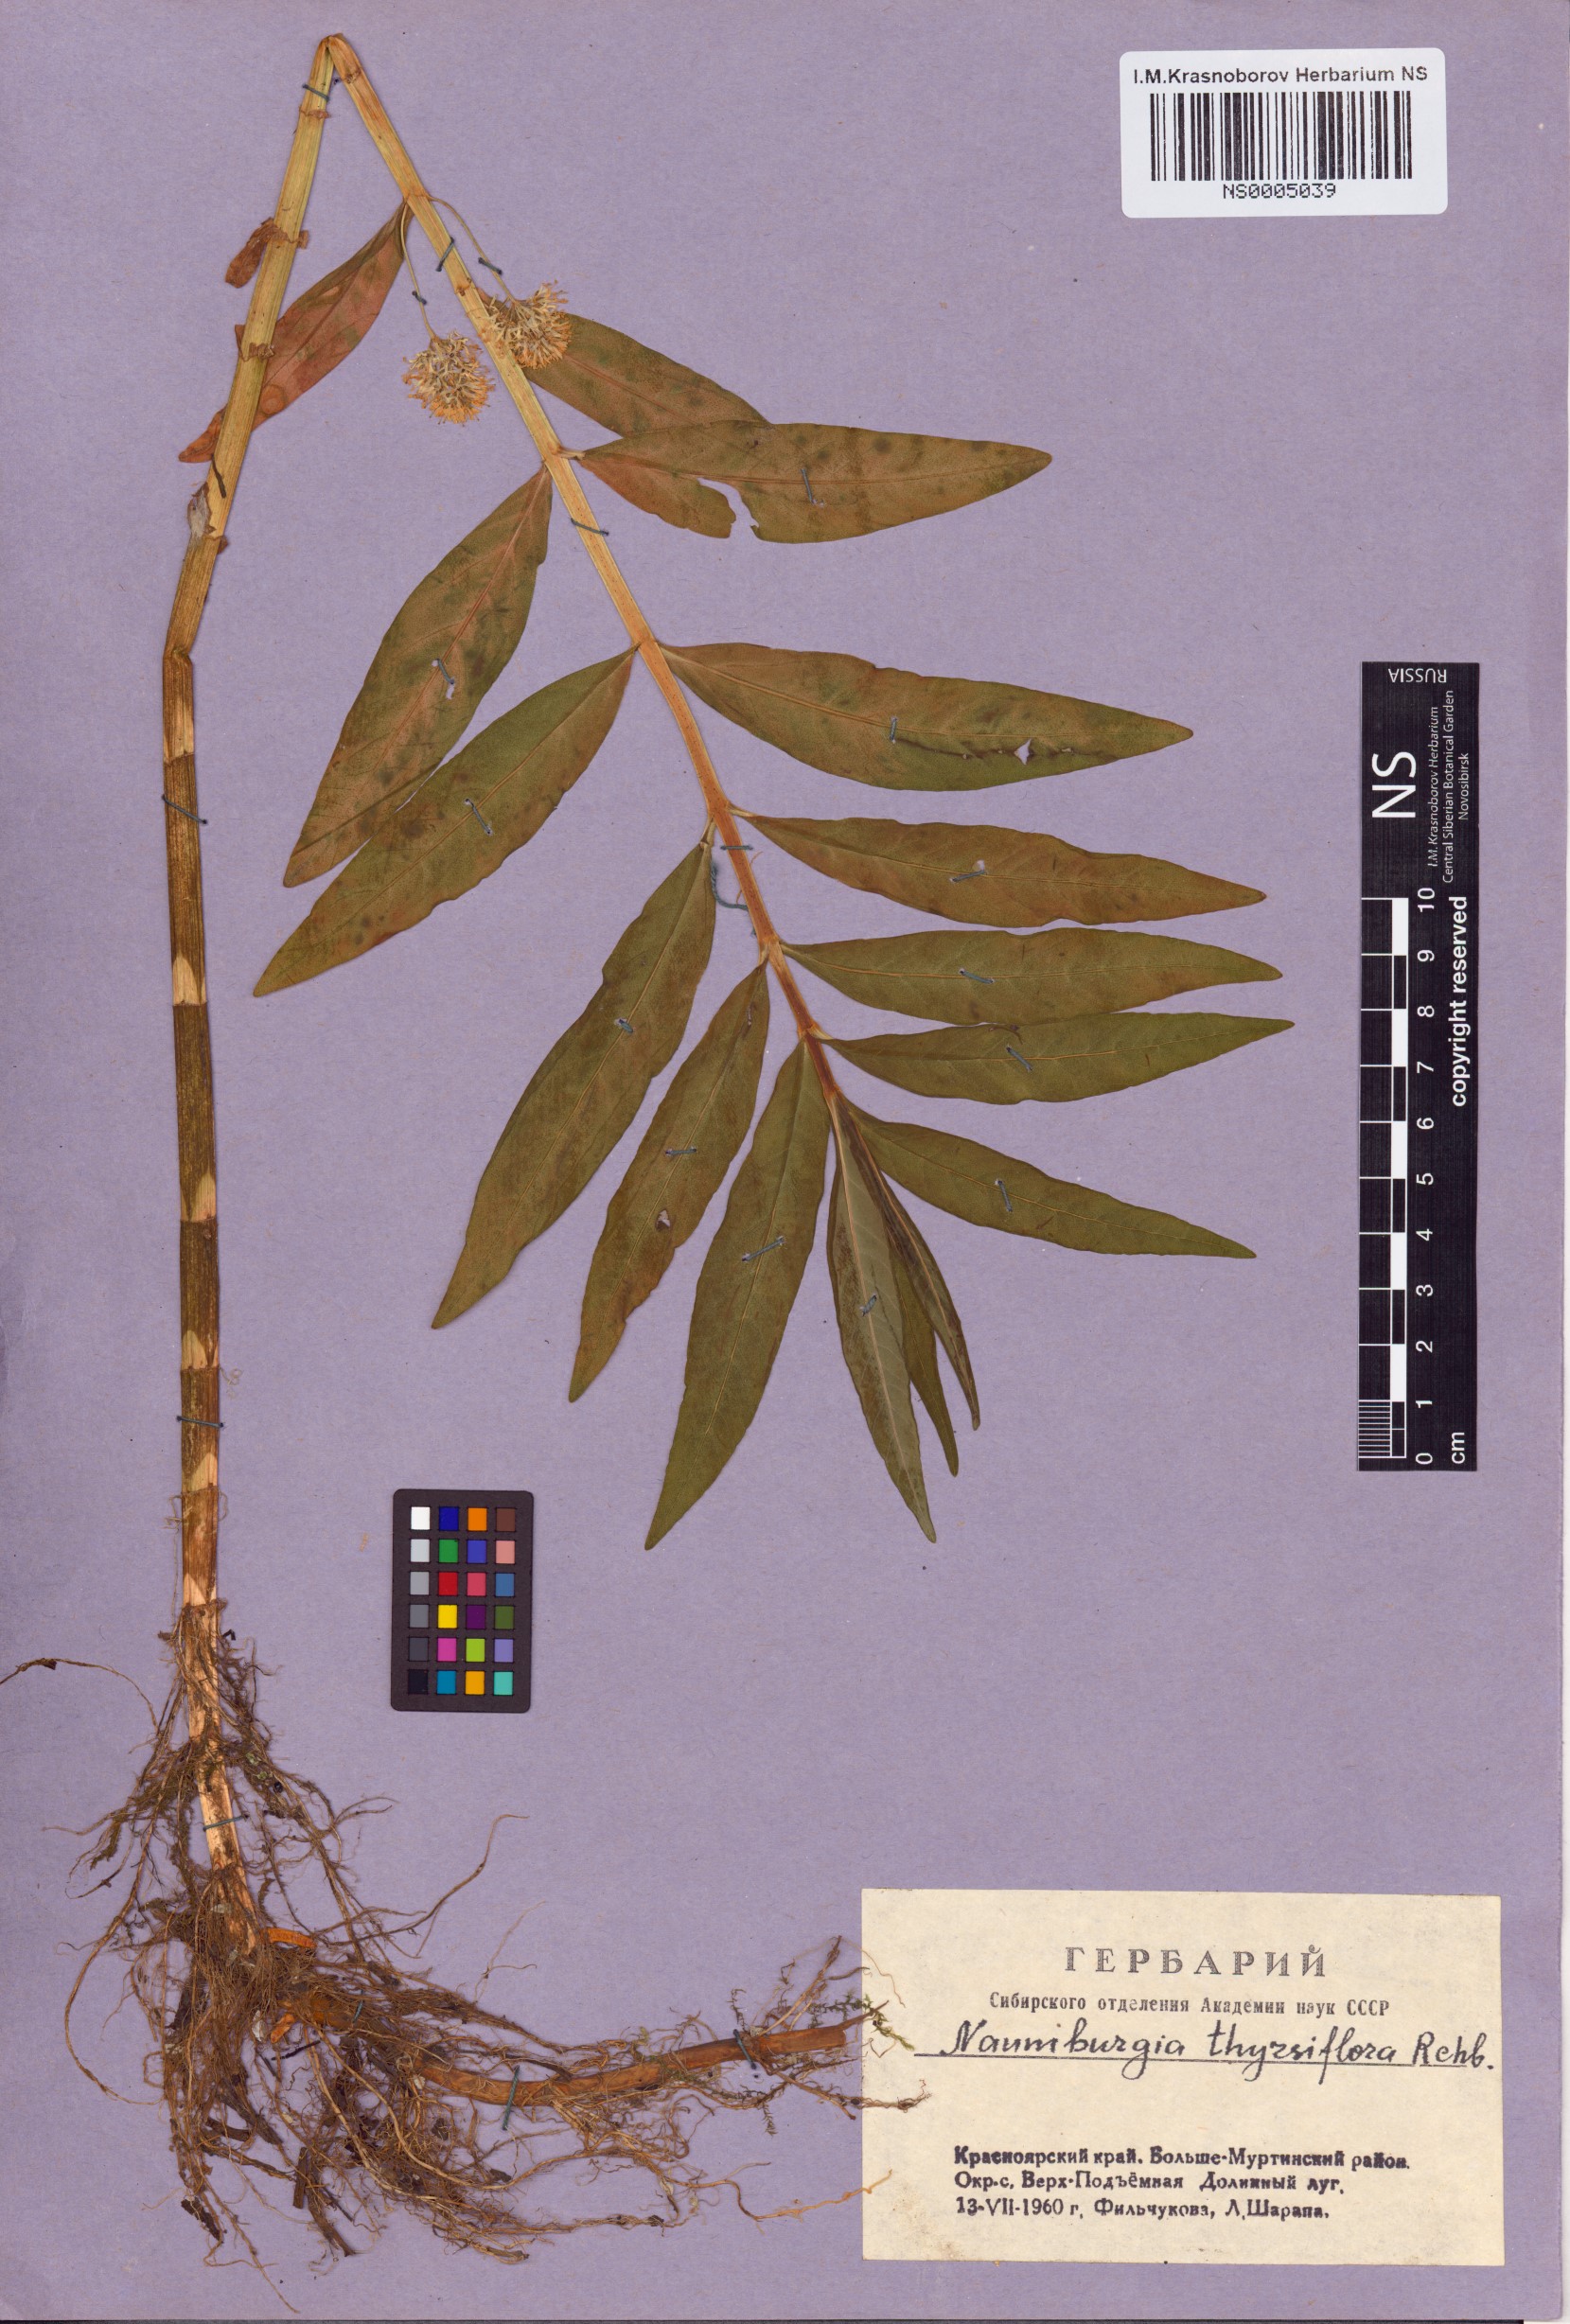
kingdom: Plantae
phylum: Tracheophyta
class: Magnoliopsida
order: Ericales
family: Primulaceae
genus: Lysimachia
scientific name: Lysimachia thyrsiflora
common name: Tufted loosestrife
